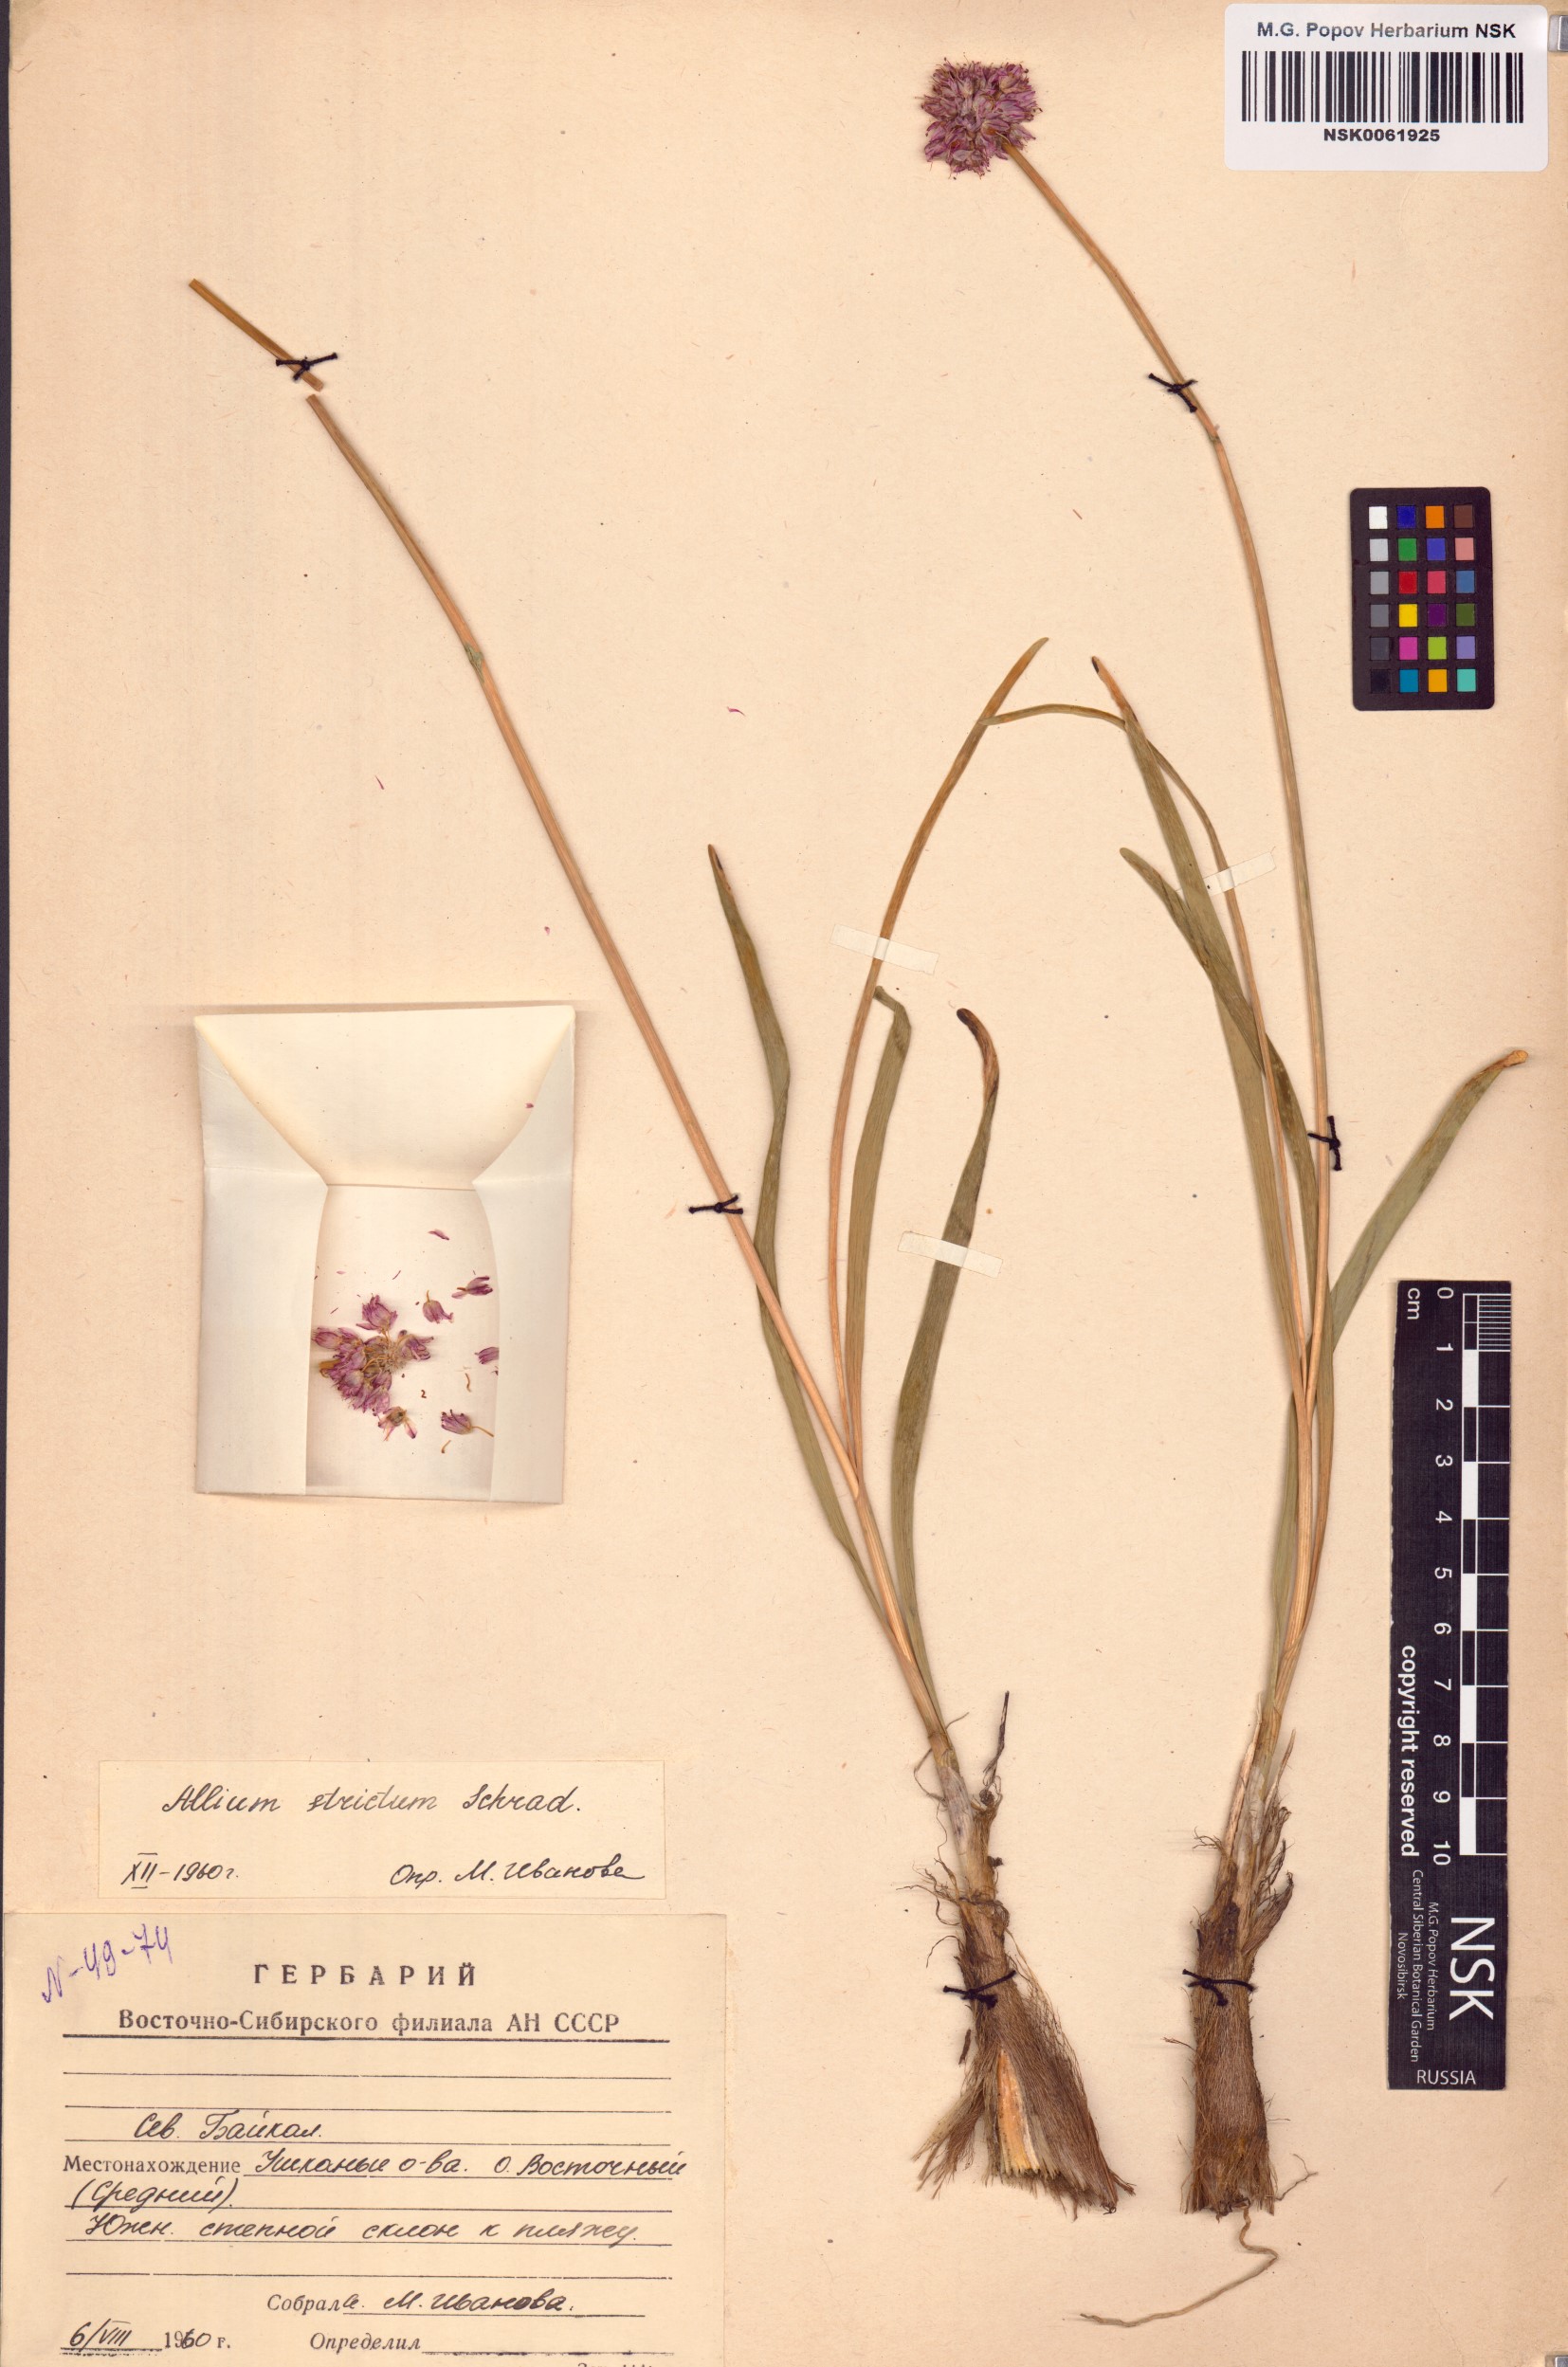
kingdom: Plantae
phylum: Tracheophyta
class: Liliopsida
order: Asparagales
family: Amaryllidaceae
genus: Allium
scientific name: Allium strictum
